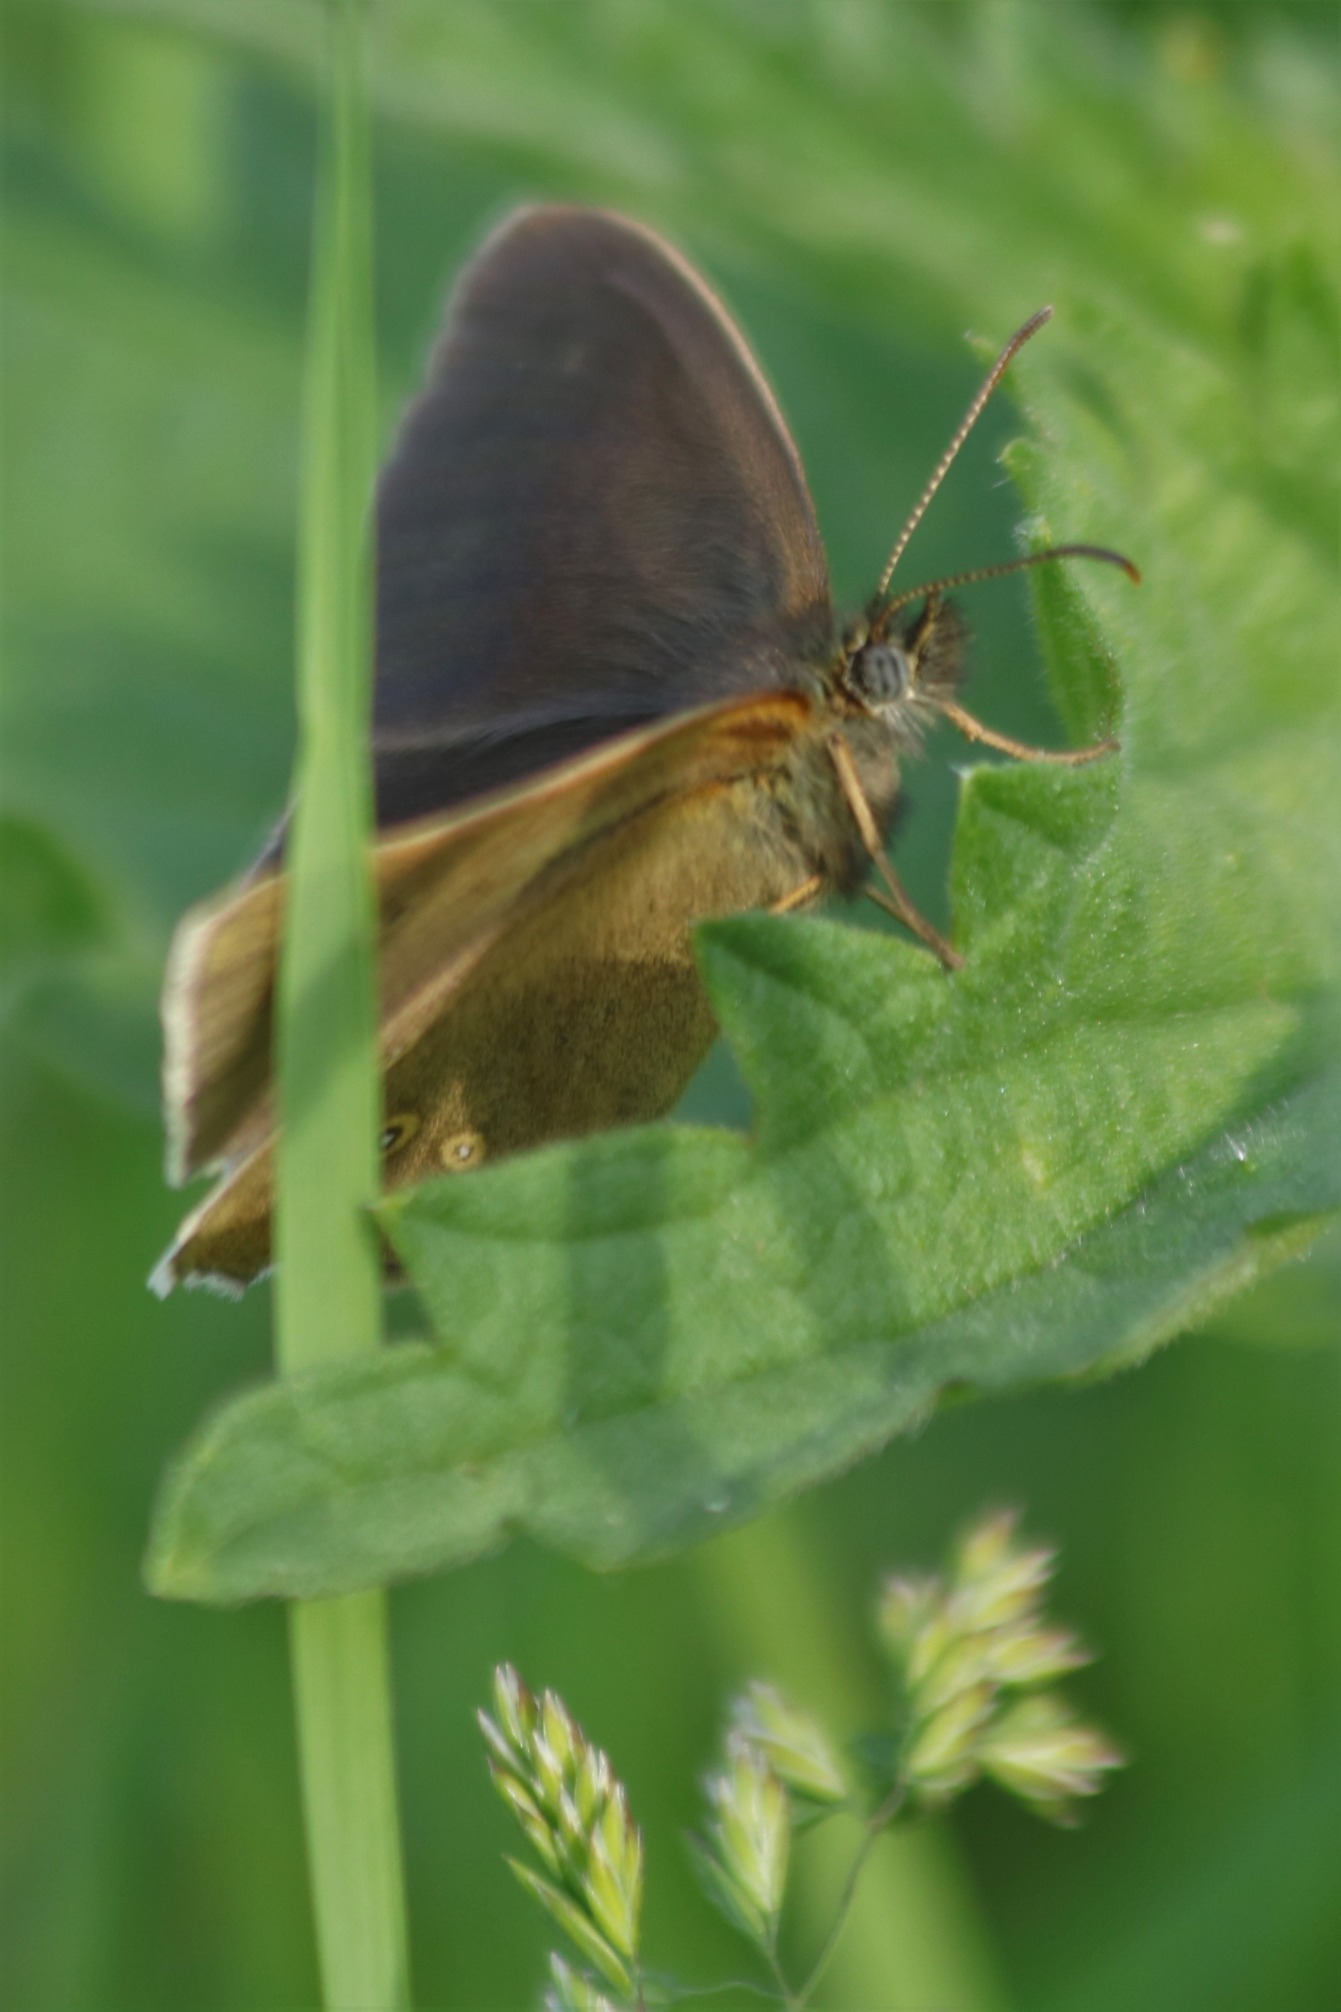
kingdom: Animalia
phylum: Arthropoda
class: Insecta
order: Lepidoptera
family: Nymphalidae
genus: Aphantopus
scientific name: Aphantopus hyperantus
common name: Engrandøje
